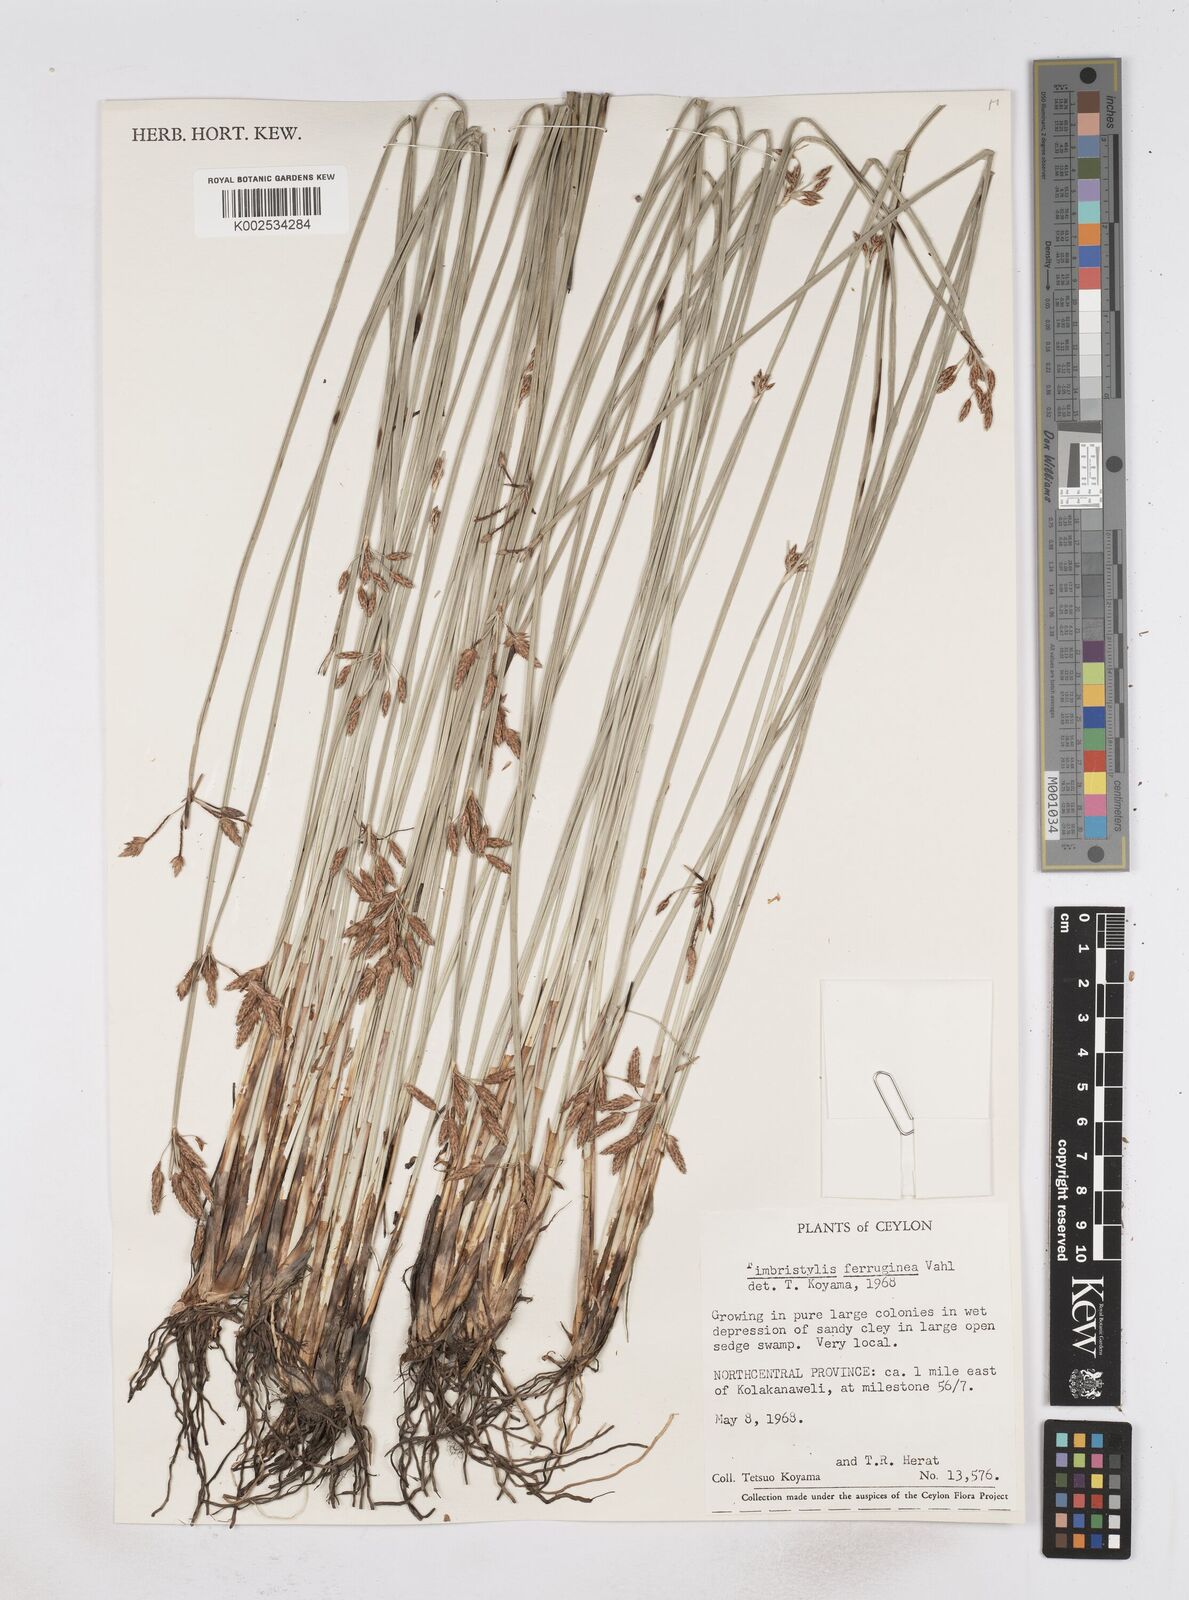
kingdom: Plantae
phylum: Tracheophyta
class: Liliopsida
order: Poales
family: Cyperaceae
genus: Fimbristylis
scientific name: Fimbristylis ferruginea
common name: West indian fimbry
